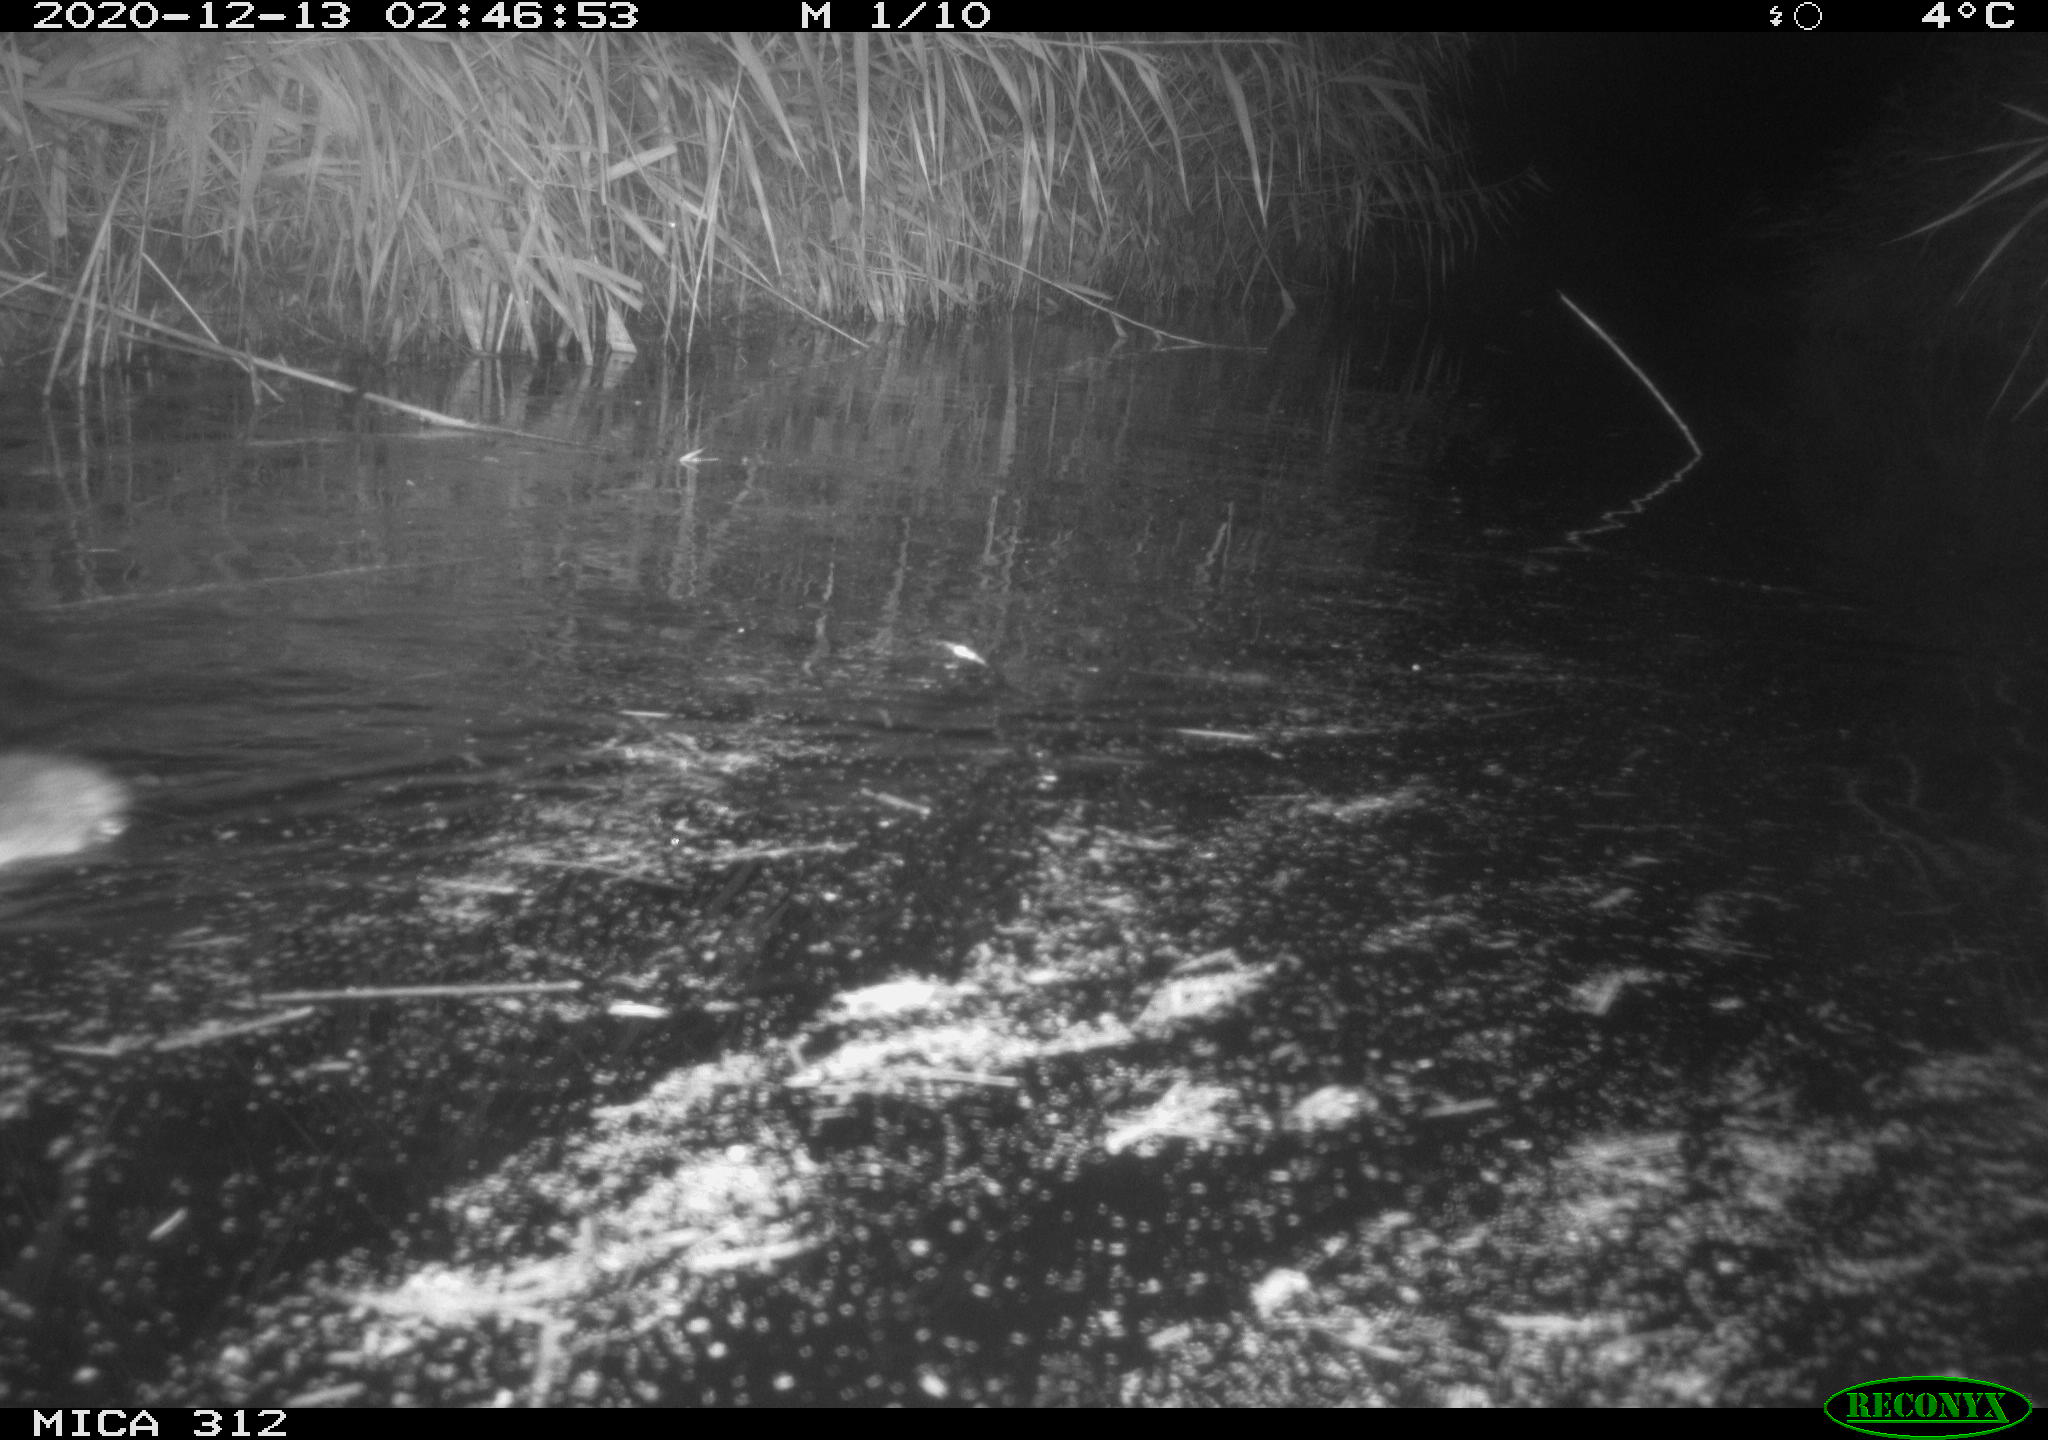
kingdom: Animalia
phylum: Chordata
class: Mammalia
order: Rodentia
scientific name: Rodentia
